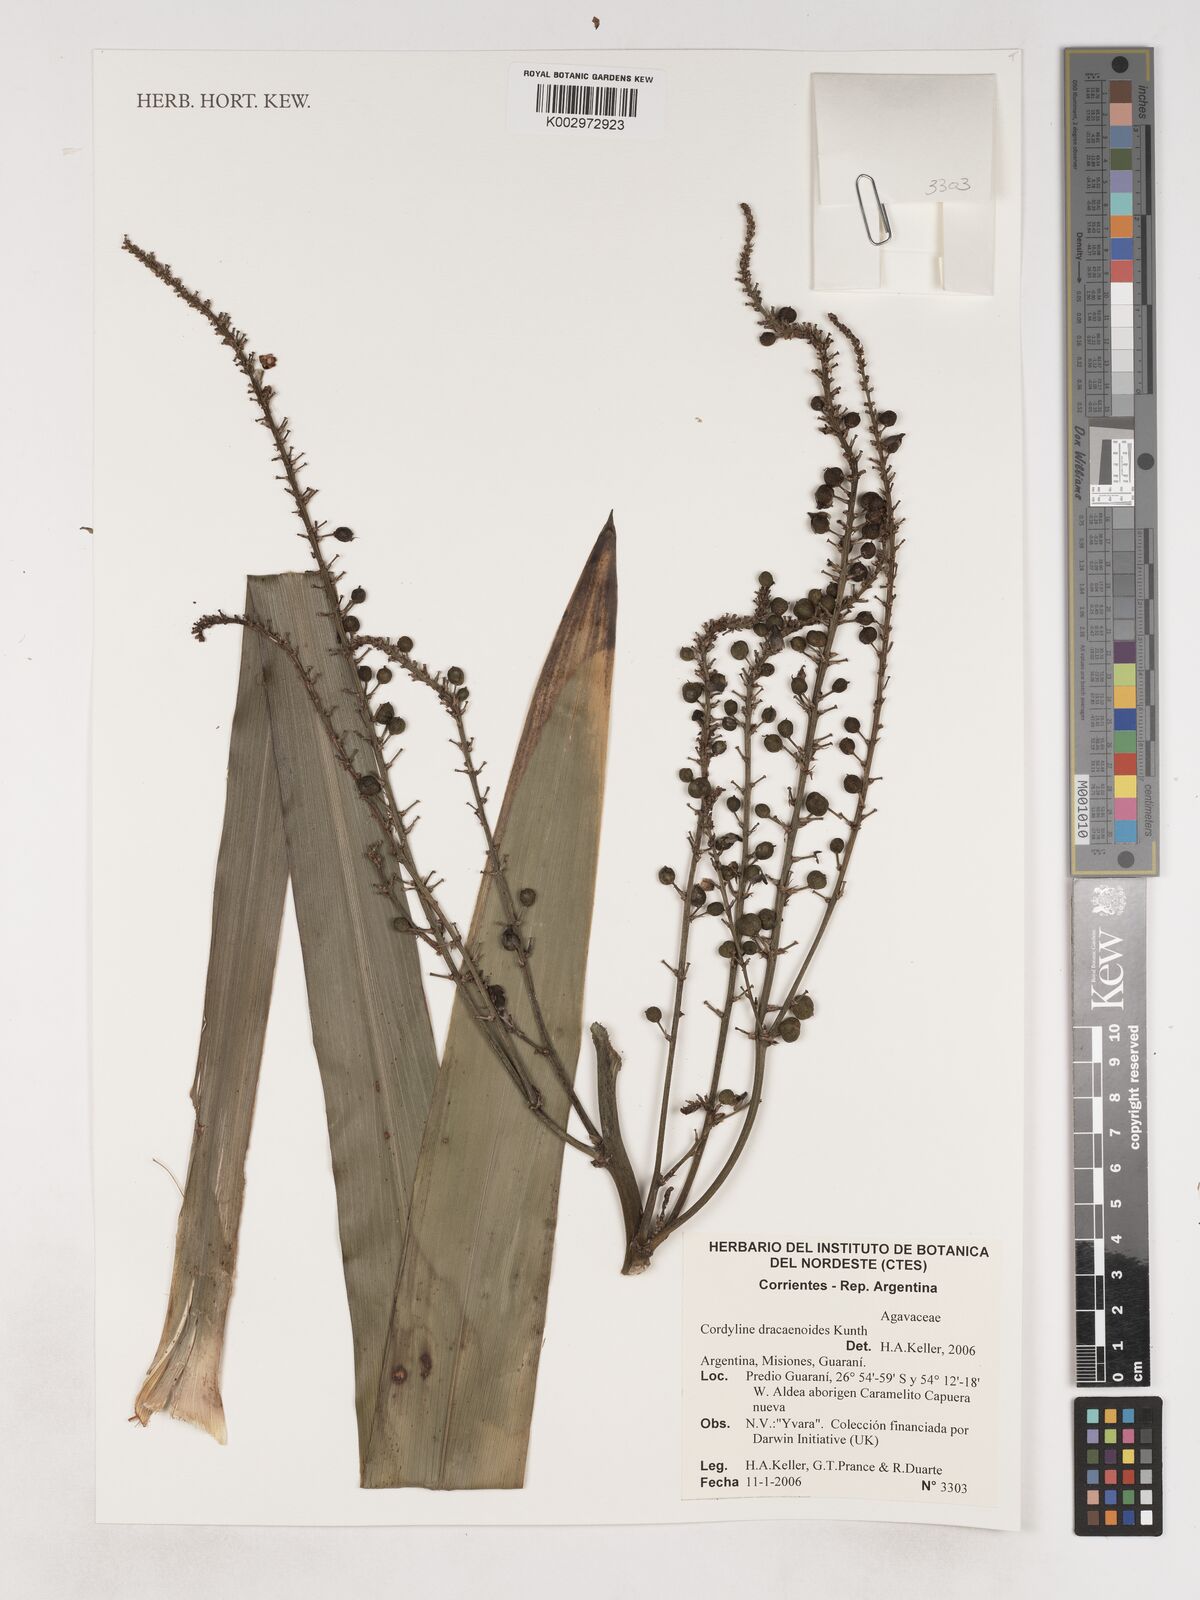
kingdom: Plantae
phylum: Tracheophyta
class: Liliopsida
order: Asparagales
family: Asparagaceae
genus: Cordyline
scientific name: Cordyline congesta
